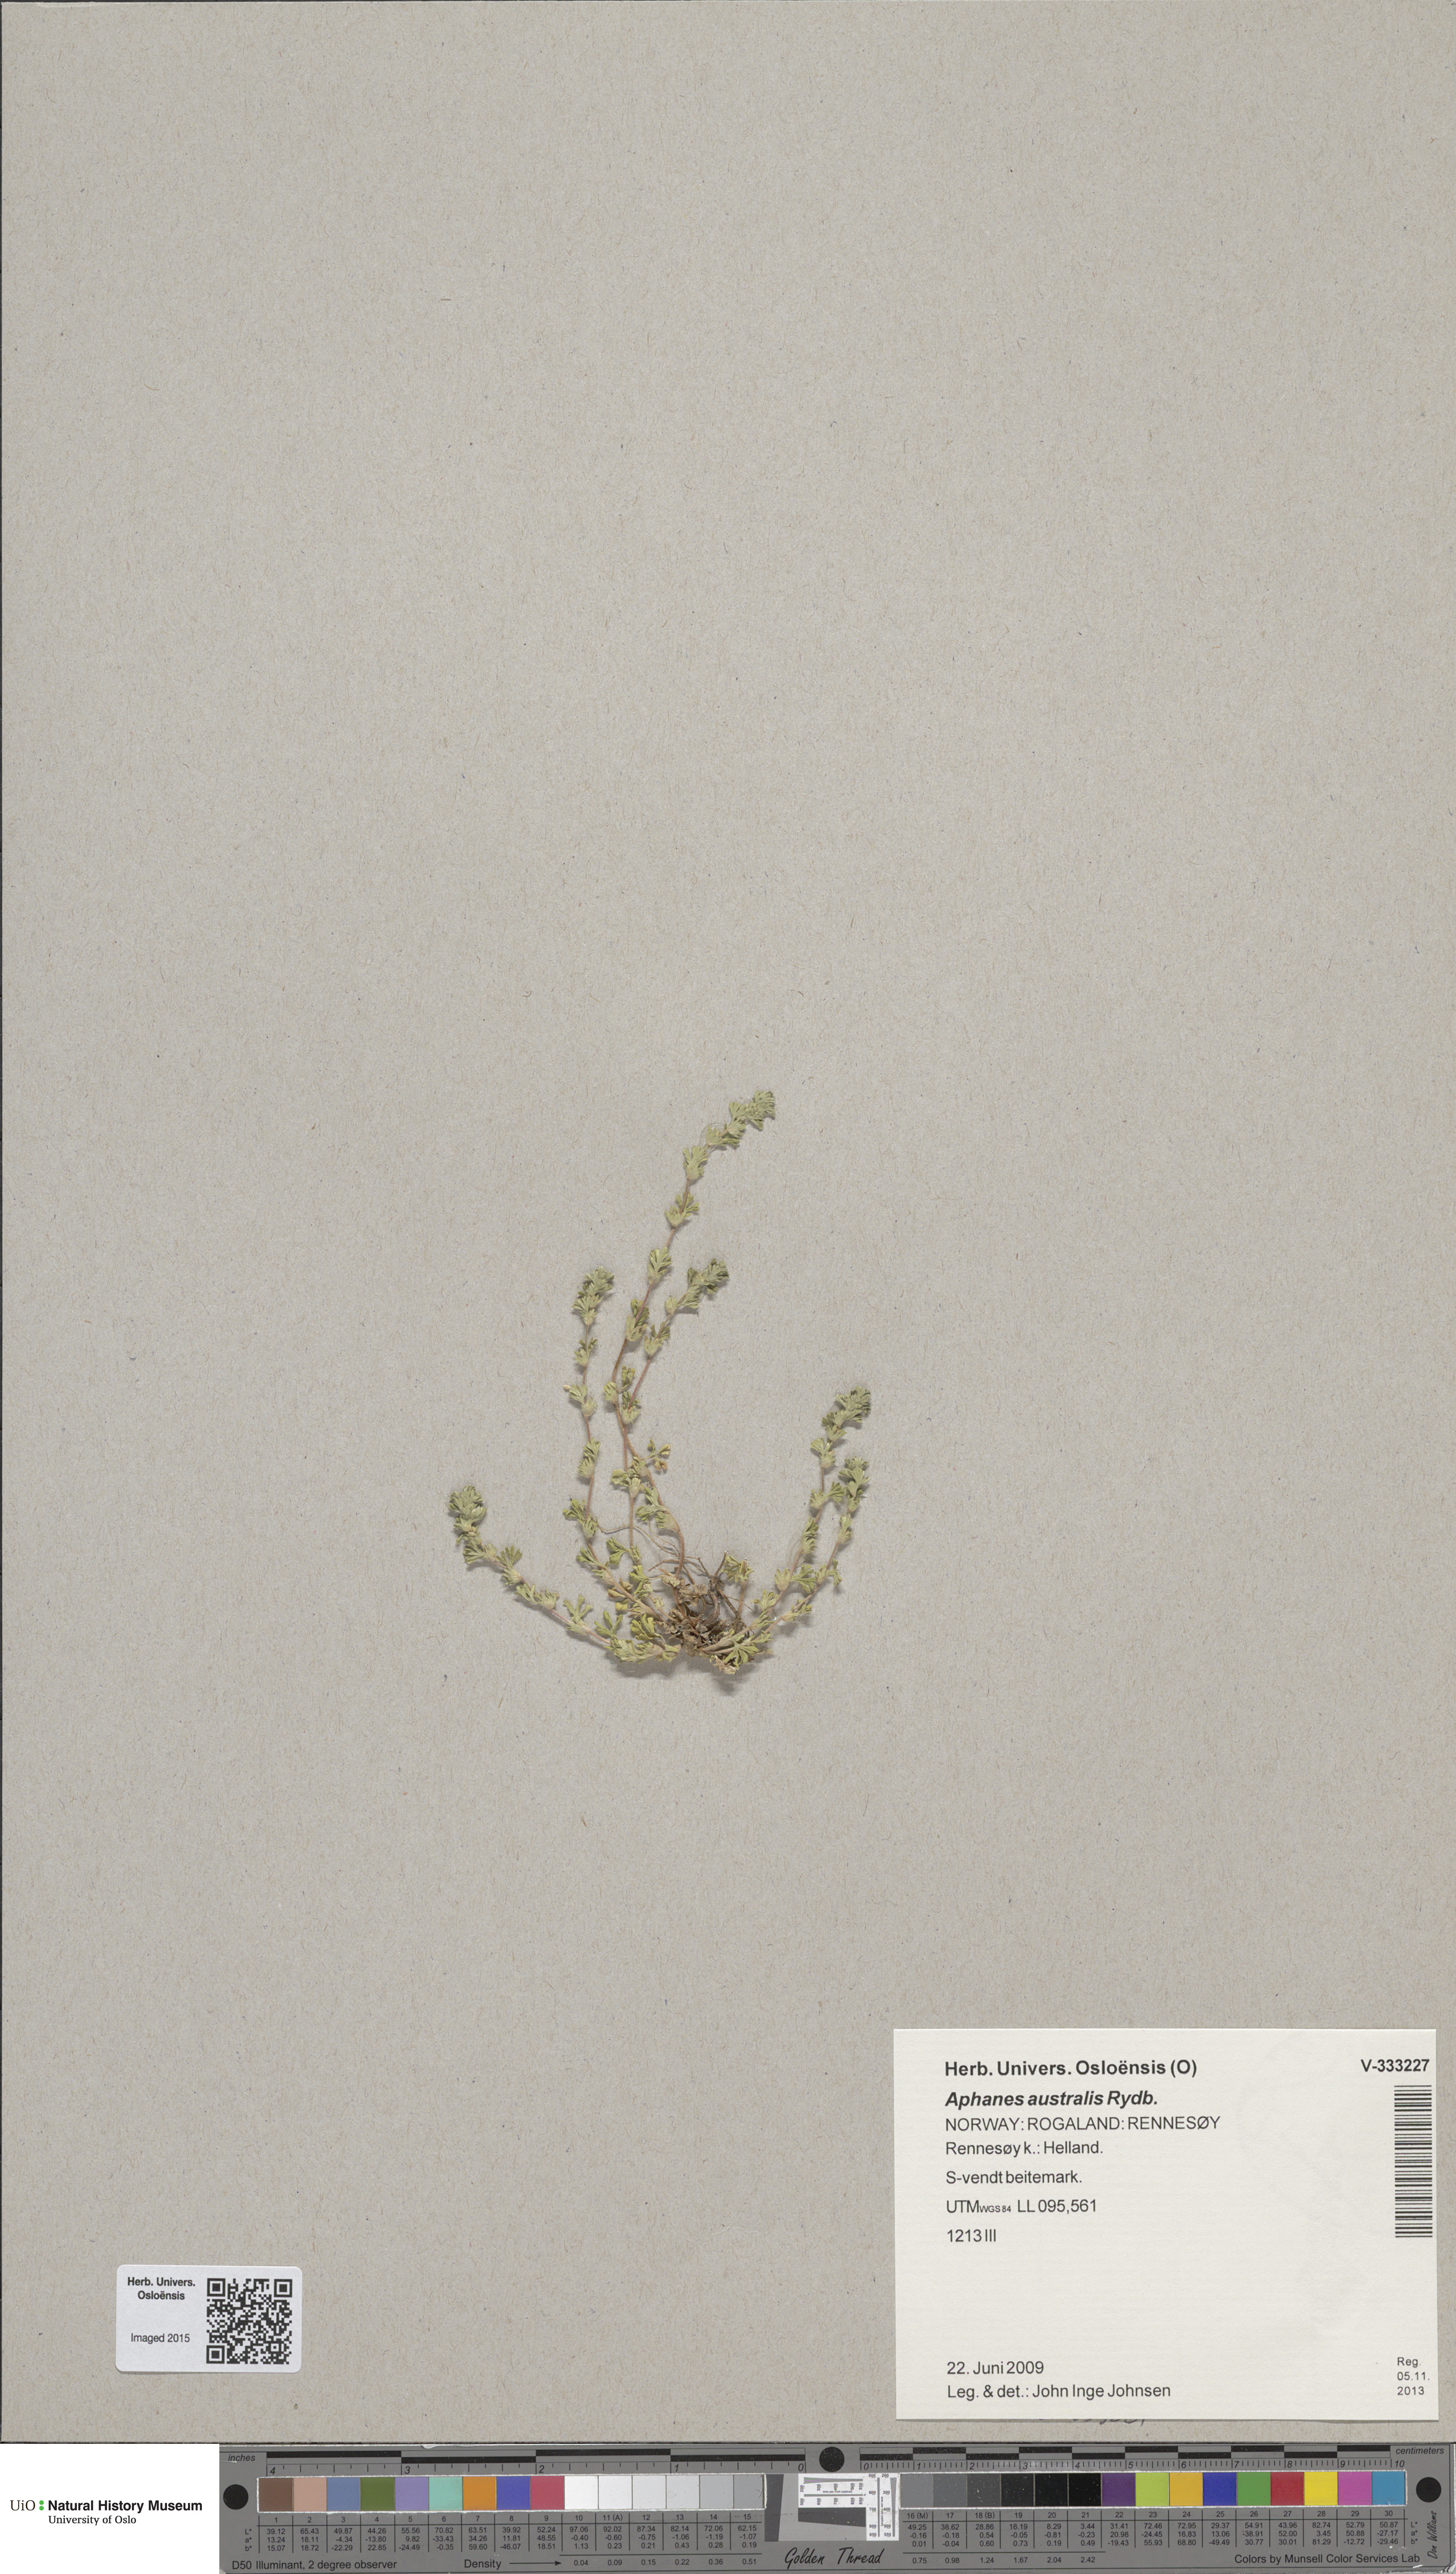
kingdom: Plantae
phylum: Tracheophyta
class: Magnoliopsida
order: Rosales
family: Rosaceae
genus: Aphanes
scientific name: Aphanes australis
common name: Slender parsley-piert
